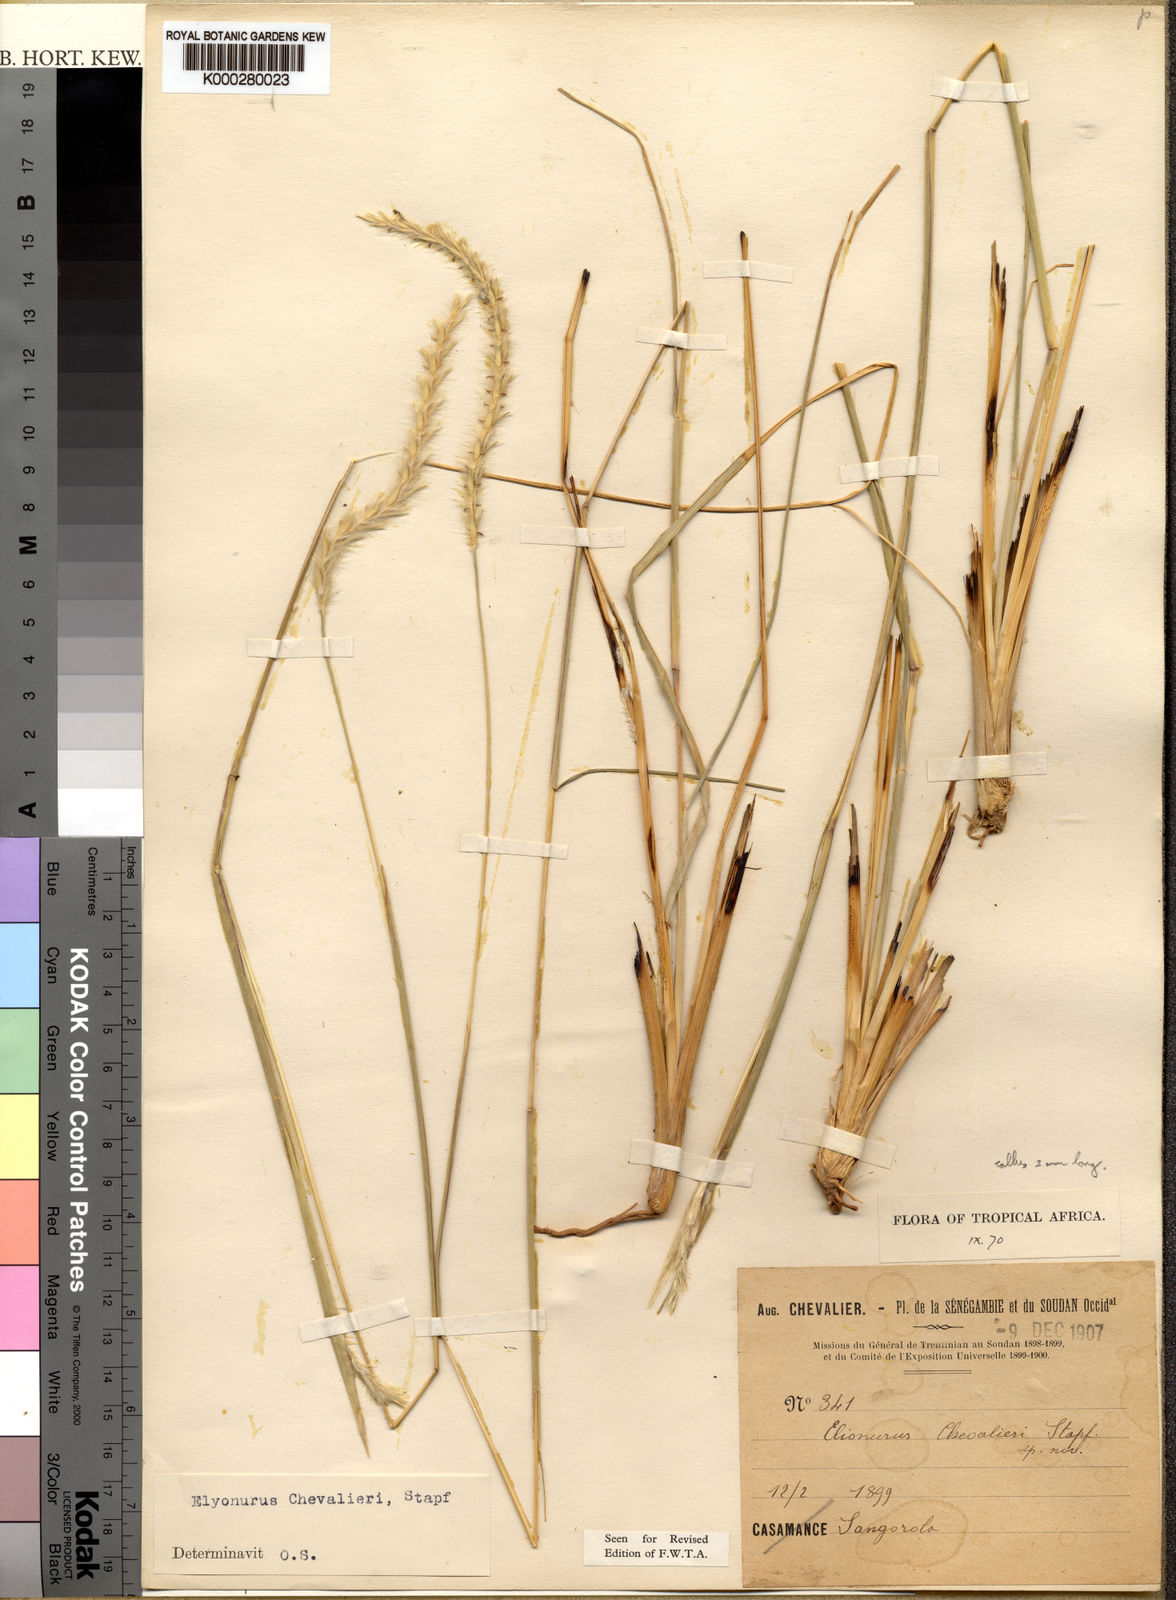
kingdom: Plantae
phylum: Tracheophyta
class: Liliopsida
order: Poales
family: Poaceae
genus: Elionurus
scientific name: Elionurus muticus
